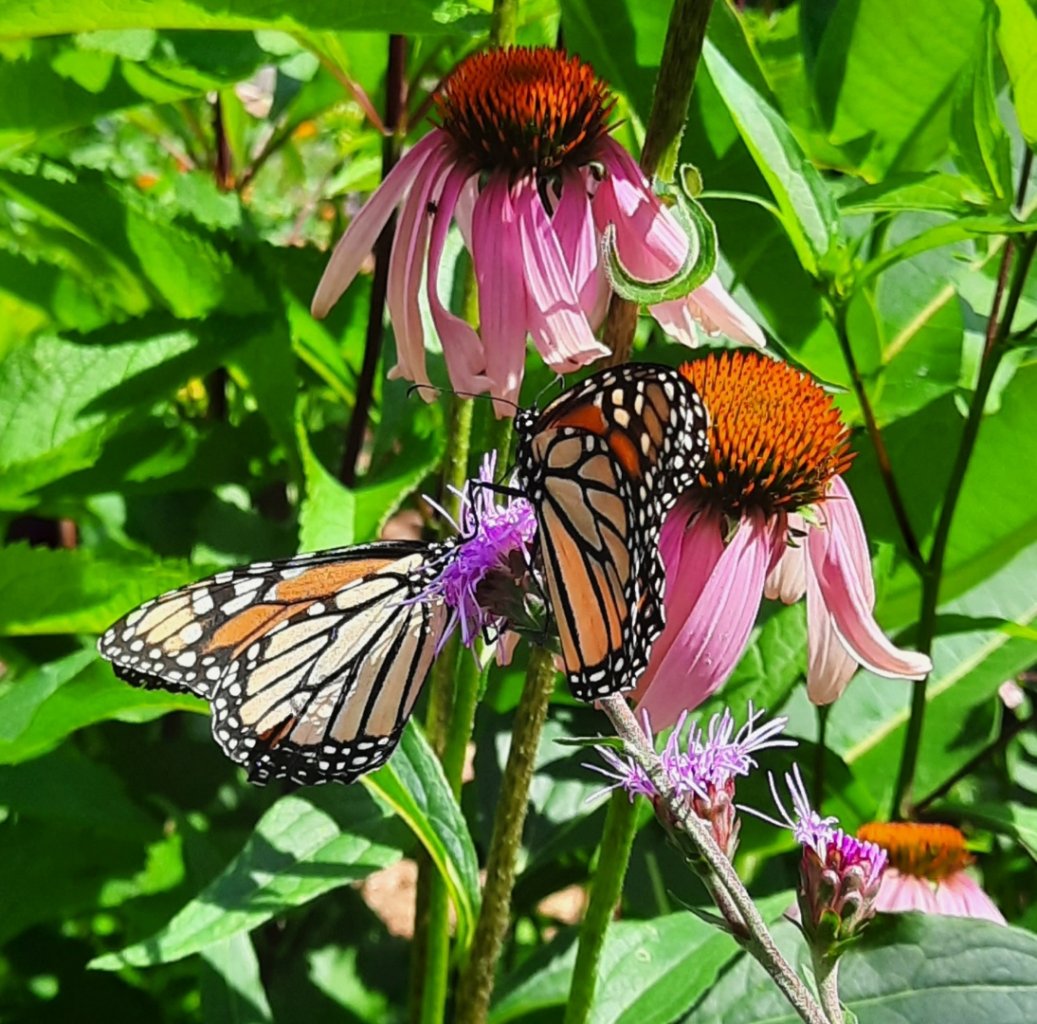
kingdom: Animalia
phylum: Arthropoda
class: Insecta
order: Lepidoptera
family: Nymphalidae
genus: Danaus
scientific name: Danaus plexippus
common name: Monarch
